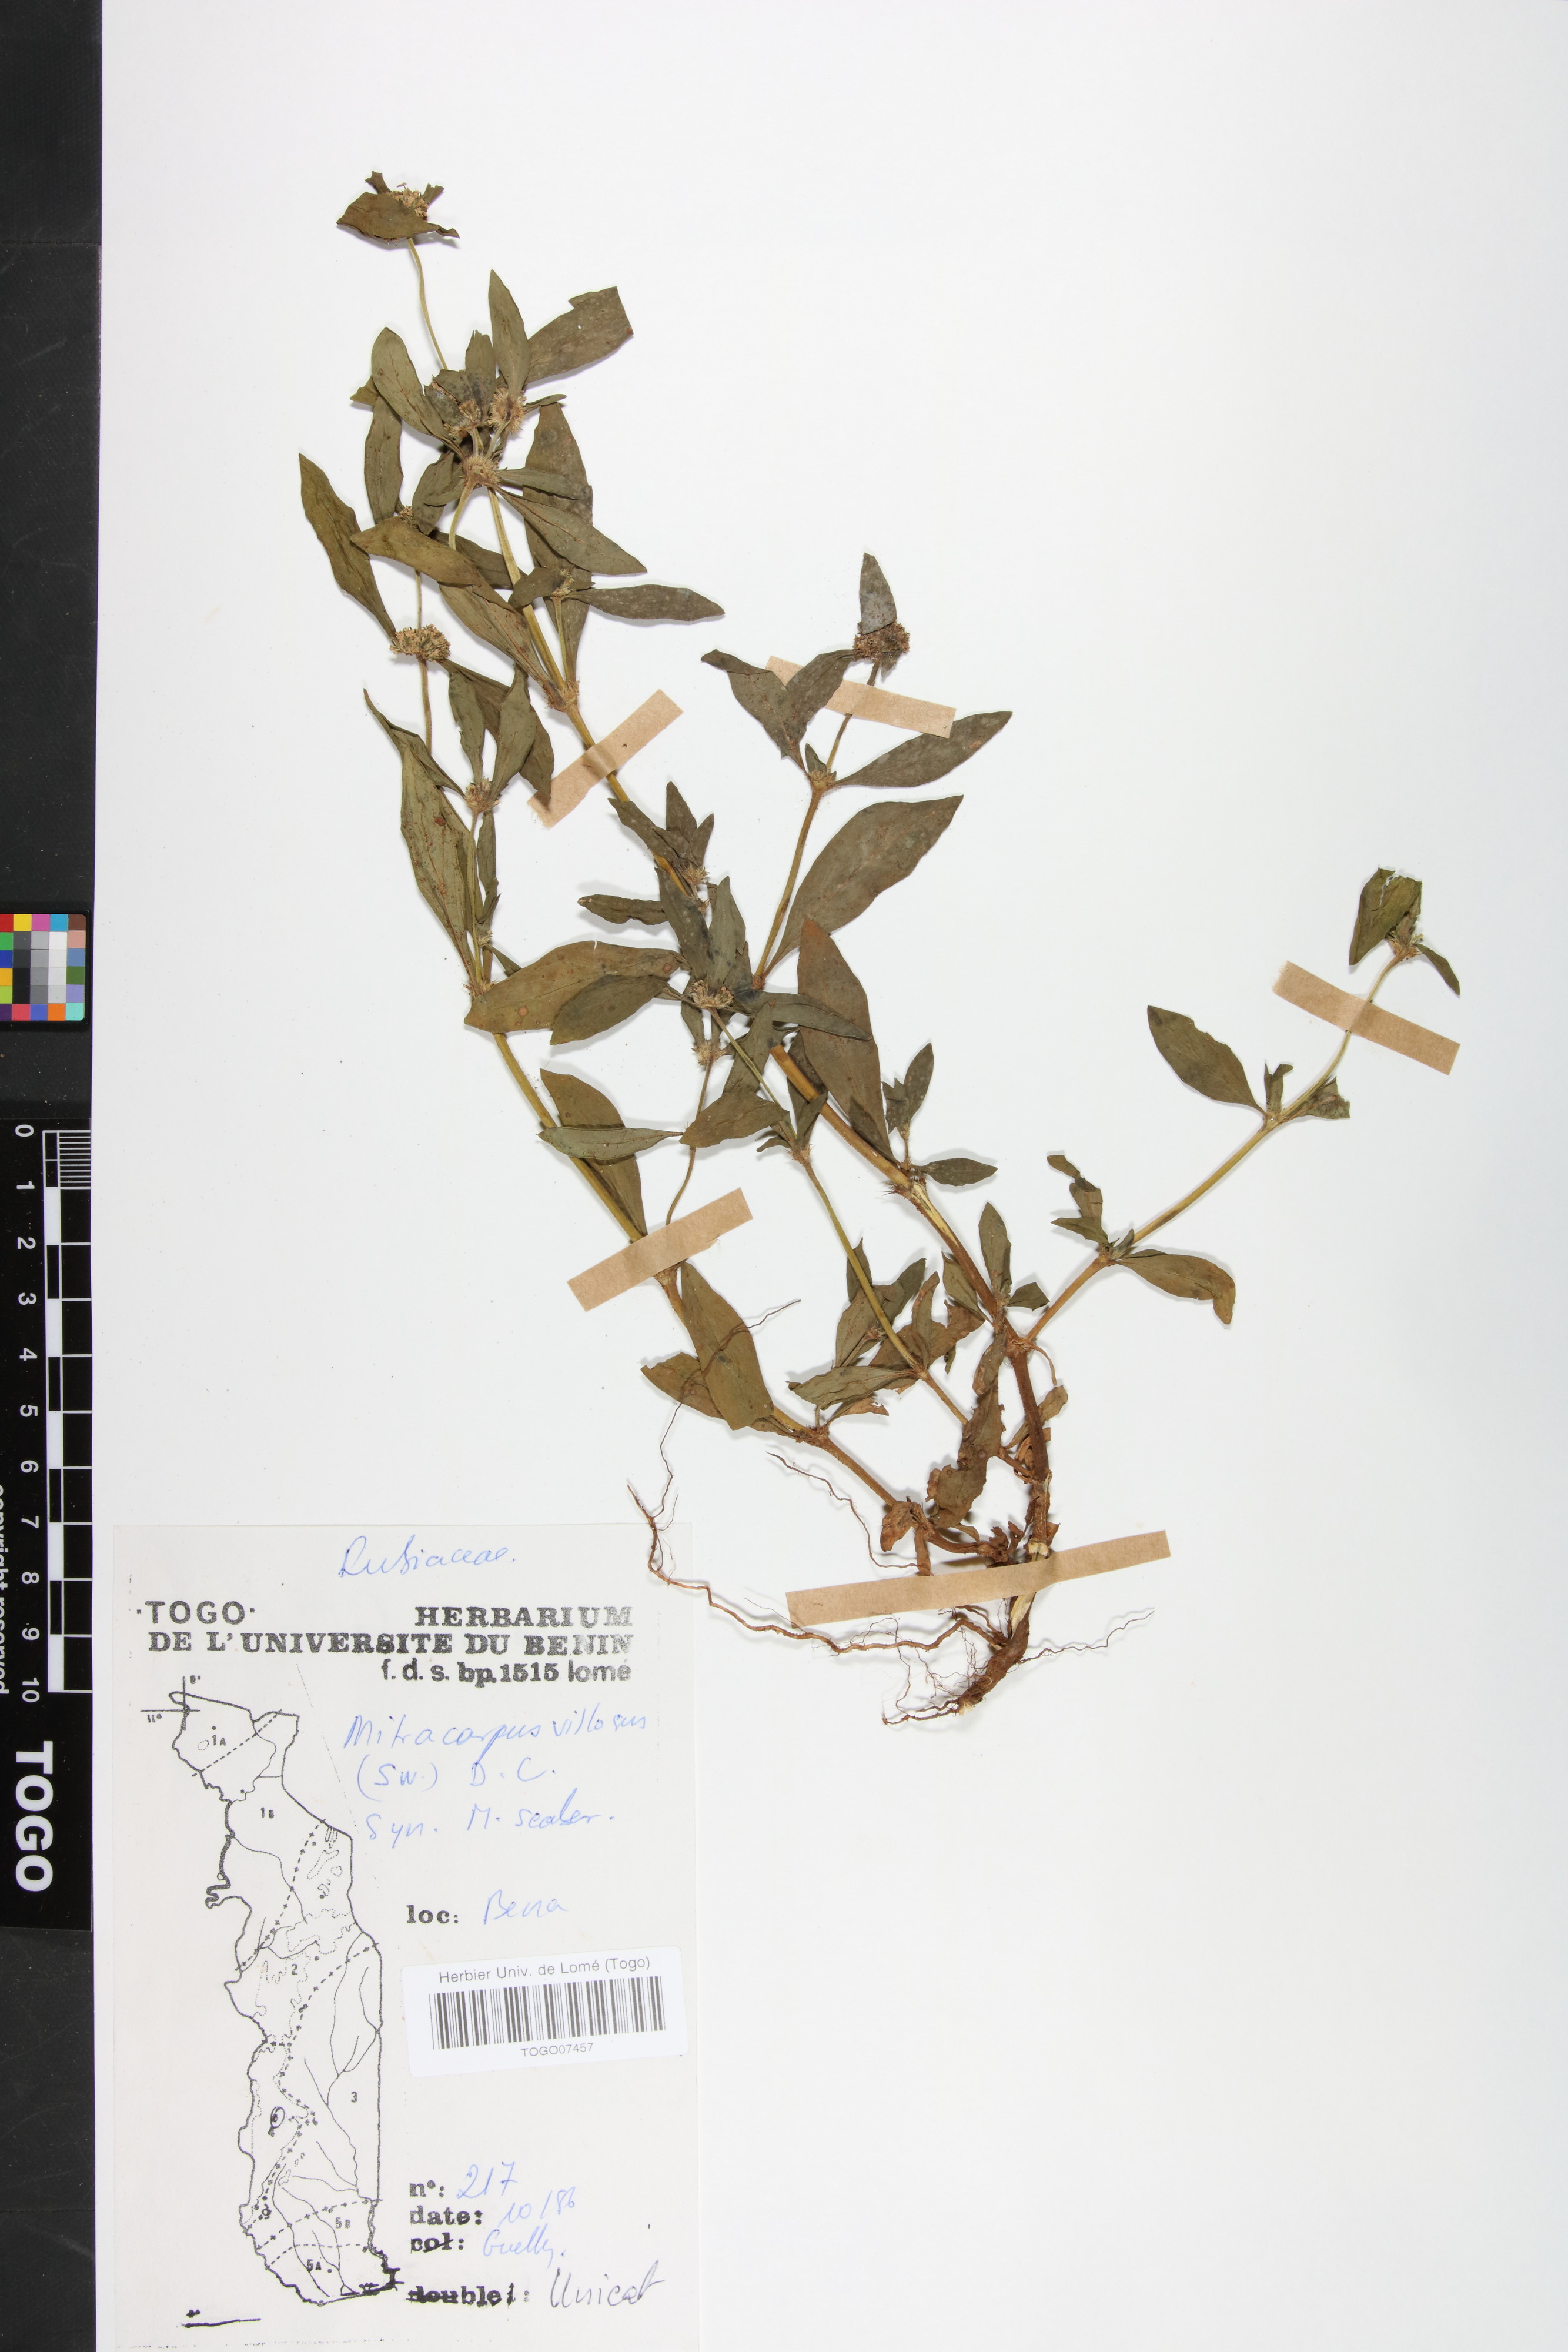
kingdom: Plantae
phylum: Tracheophyta
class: Magnoliopsida
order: Gentianales
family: Rubiaceae
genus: Mitracarpus
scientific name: Mitracarpus hirtus
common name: Tropical girdlepod
